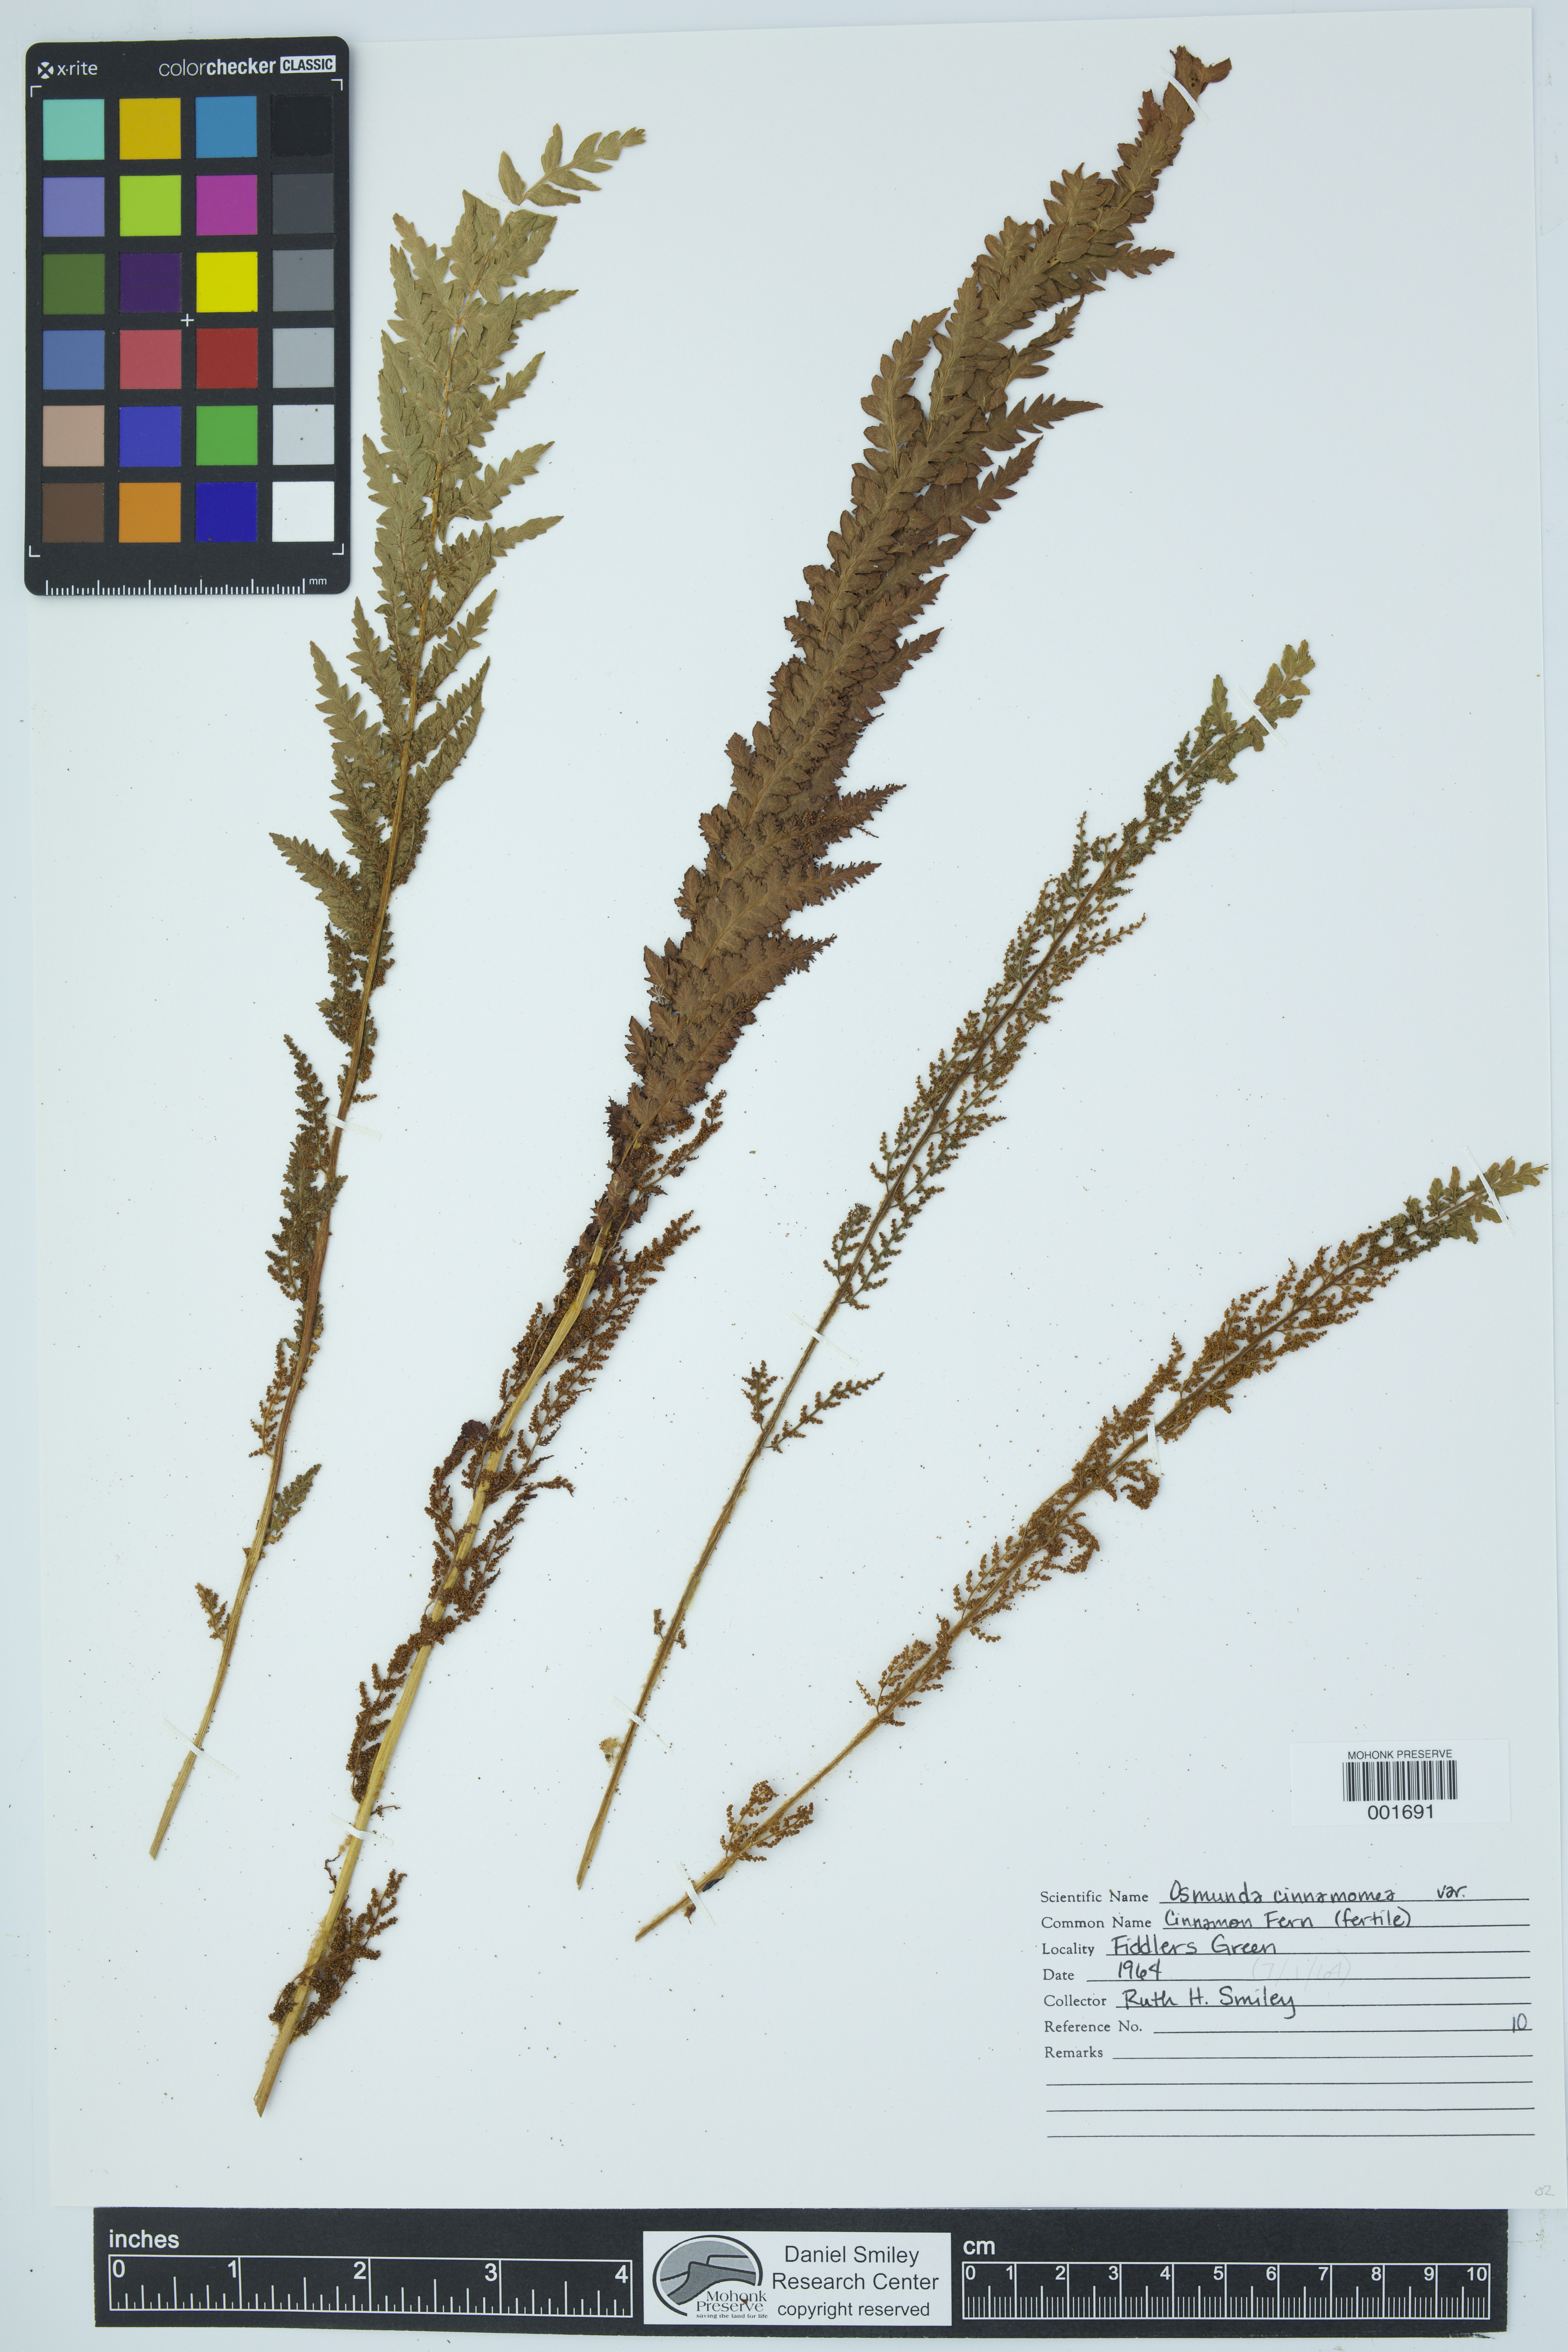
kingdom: Plantae
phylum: Tracheophyta
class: Polypodiopsida
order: Osmundales
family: Osmundaceae
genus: Osmundastrum
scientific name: Osmundastrum cinnamomeum
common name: Cinnamon fern
